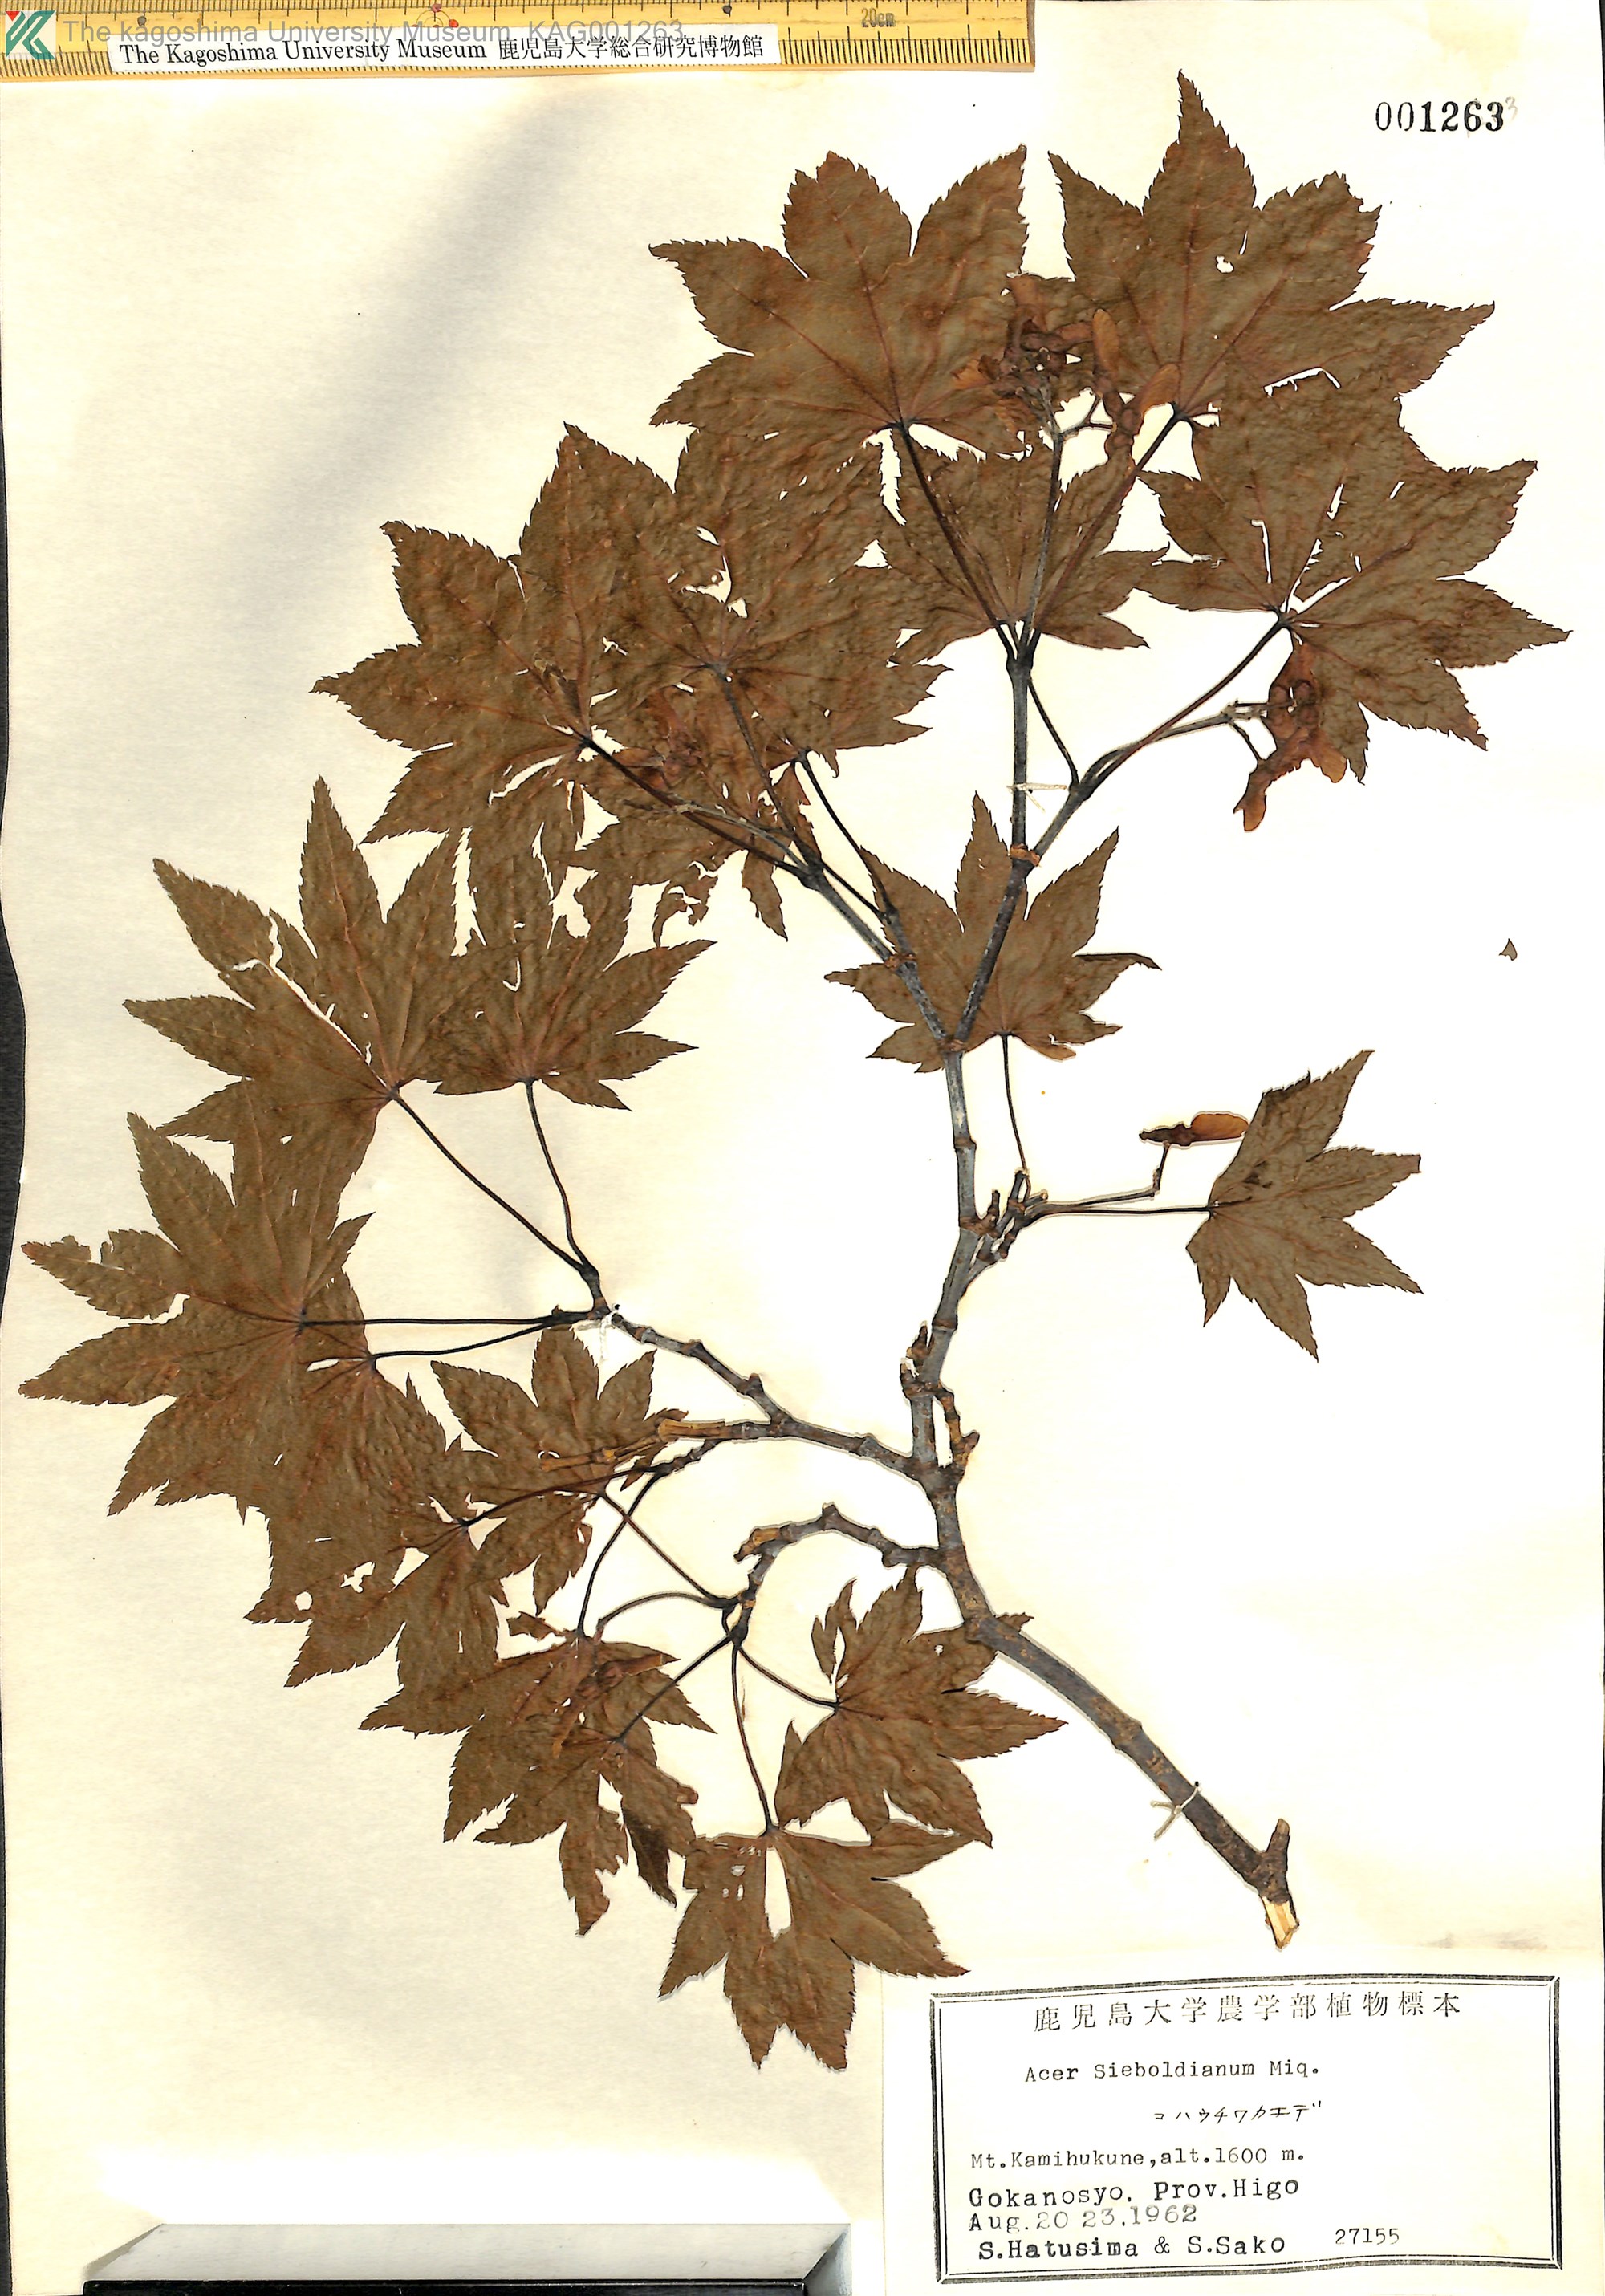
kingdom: Plantae
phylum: Tracheophyta
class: Magnoliopsida
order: Sapindales
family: Sapindaceae
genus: Acer
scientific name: Acer sieboldianum
